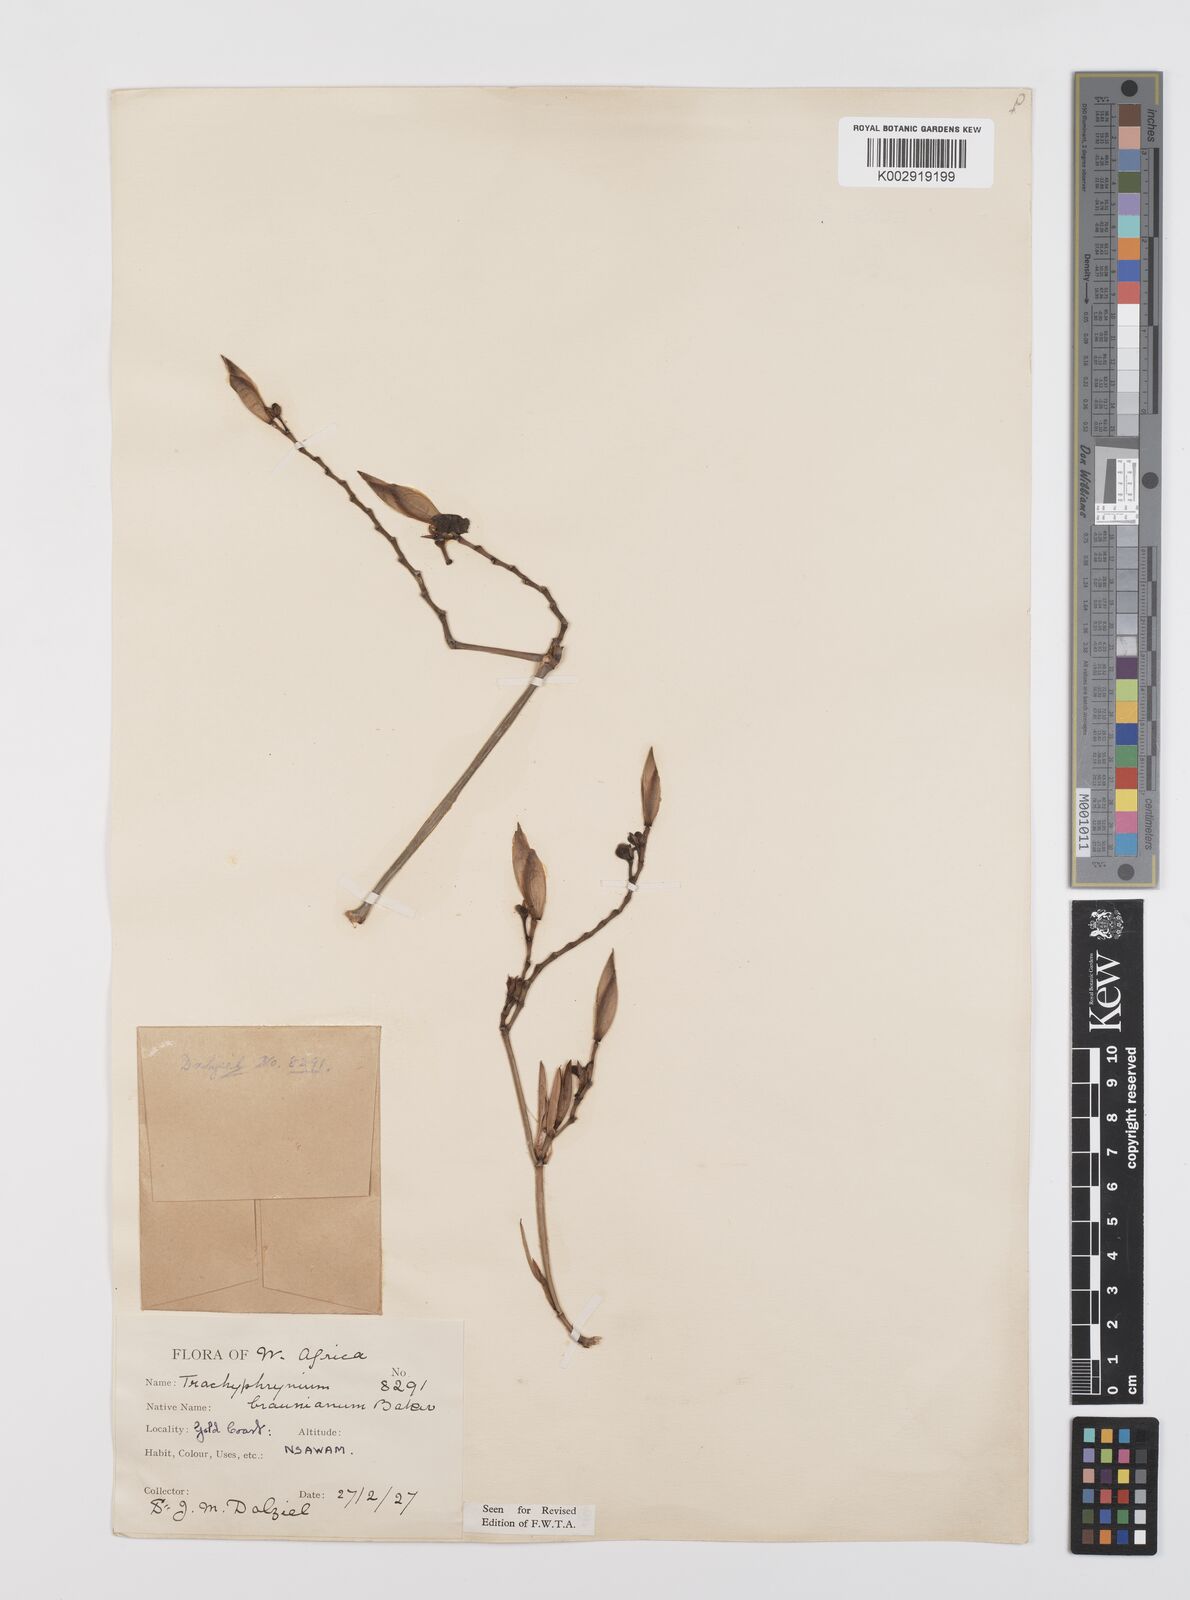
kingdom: Plantae
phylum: Tracheophyta
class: Liliopsida
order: Zingiberales
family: Marantaceae
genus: Hypselodelphys
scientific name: Hypselodelphys poggeana
